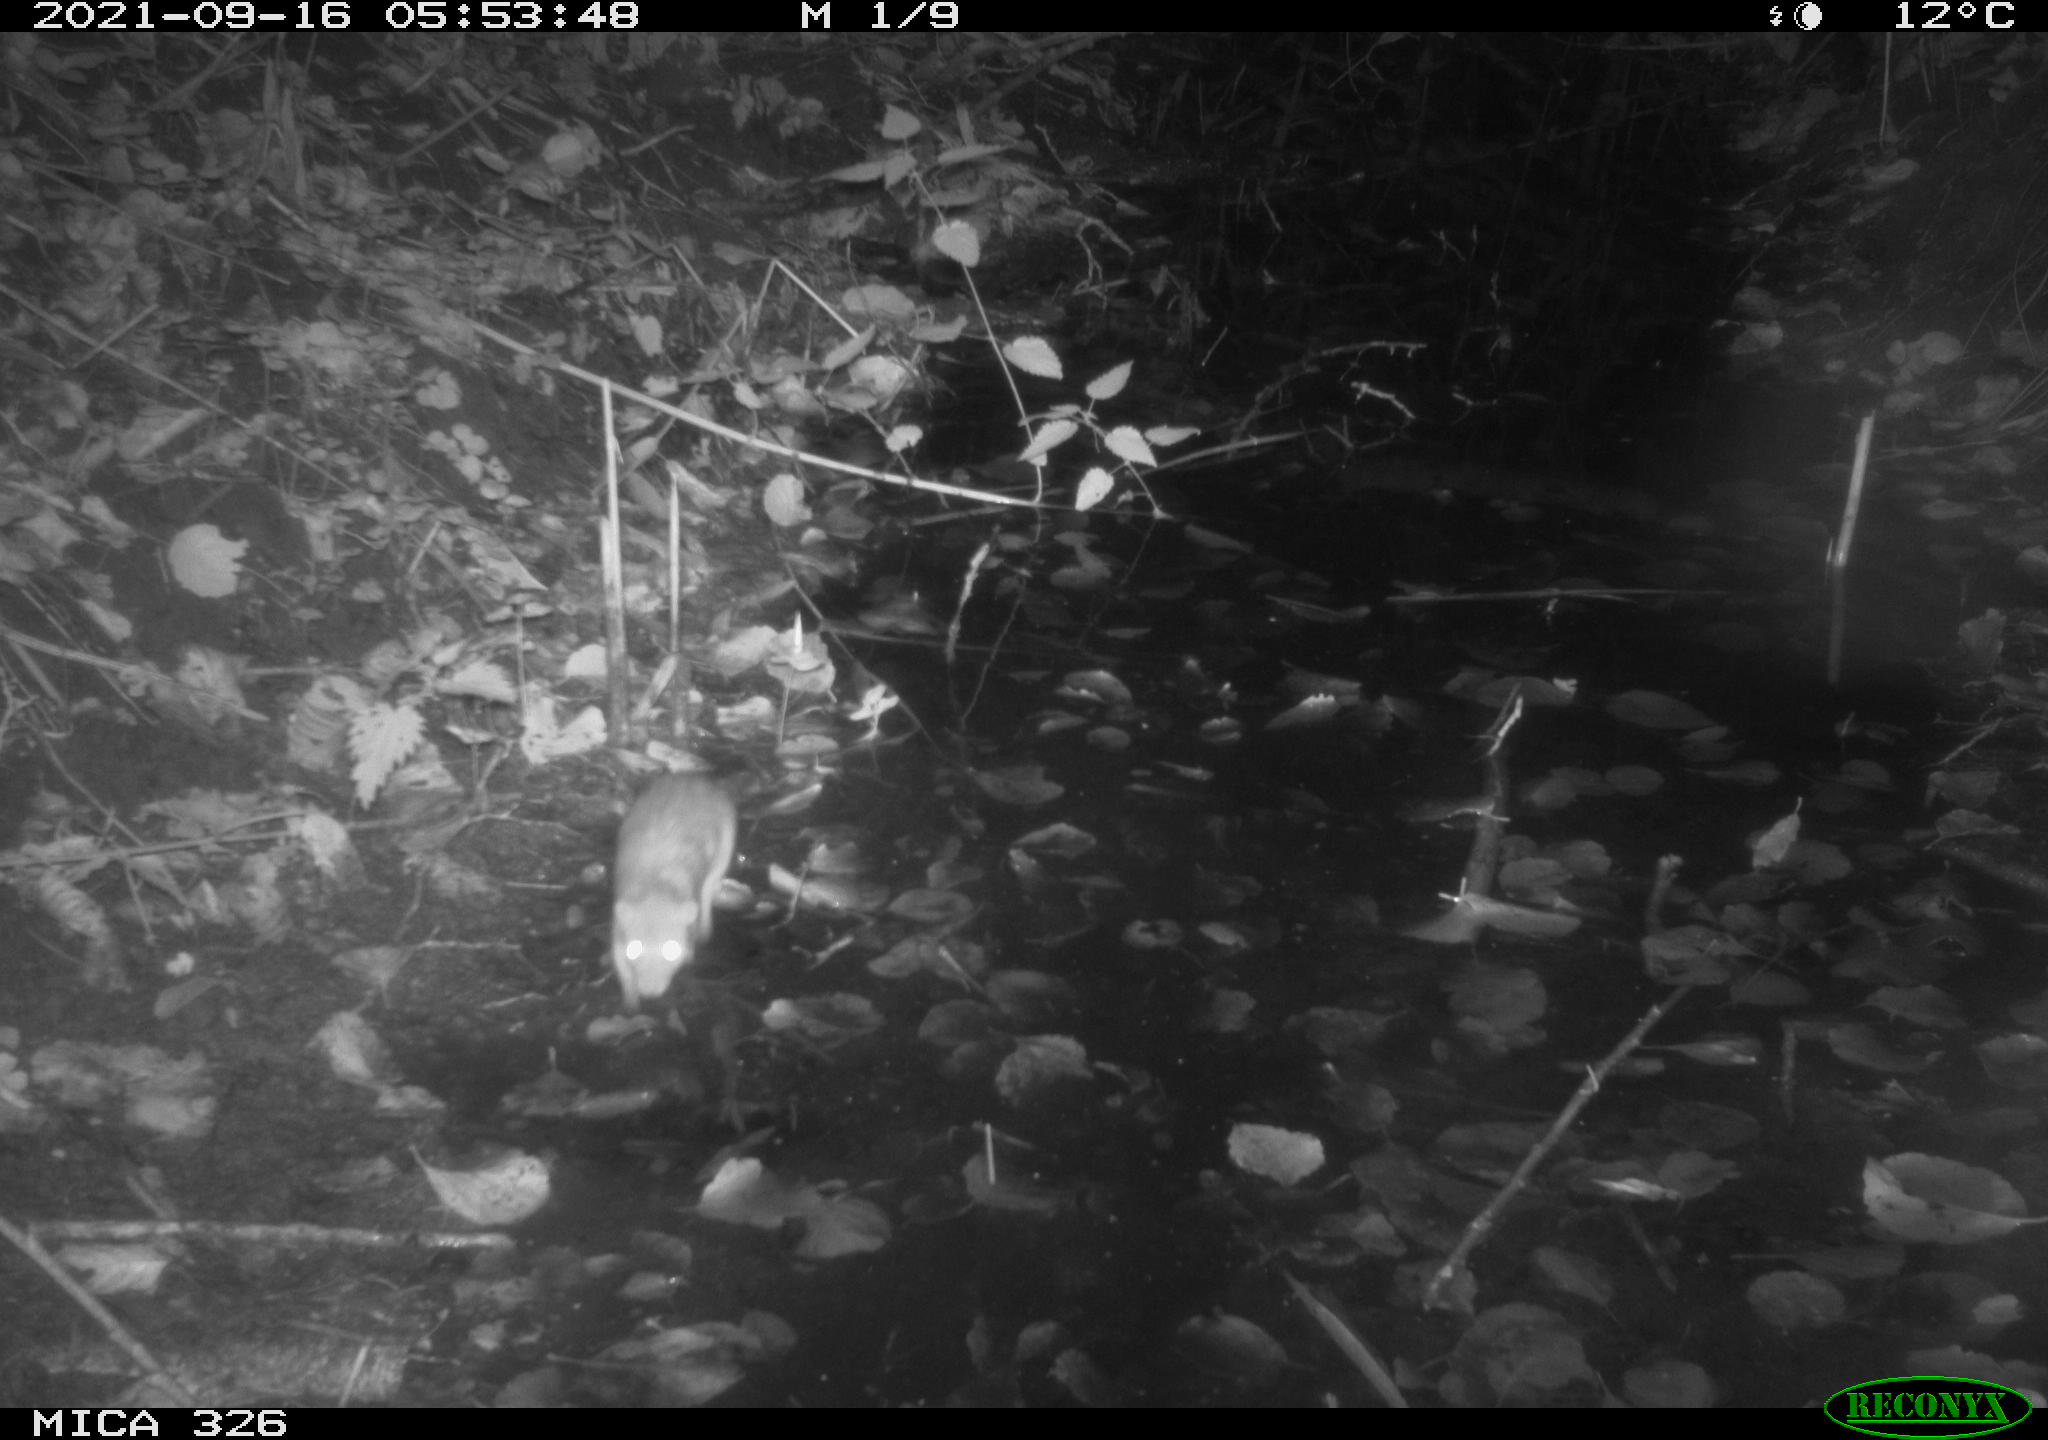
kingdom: Animalia
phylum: Chordata
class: Mammalia
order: Rodentia
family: Muridae
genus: Rattus
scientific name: Rattus norvegicus
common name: Brown rat
